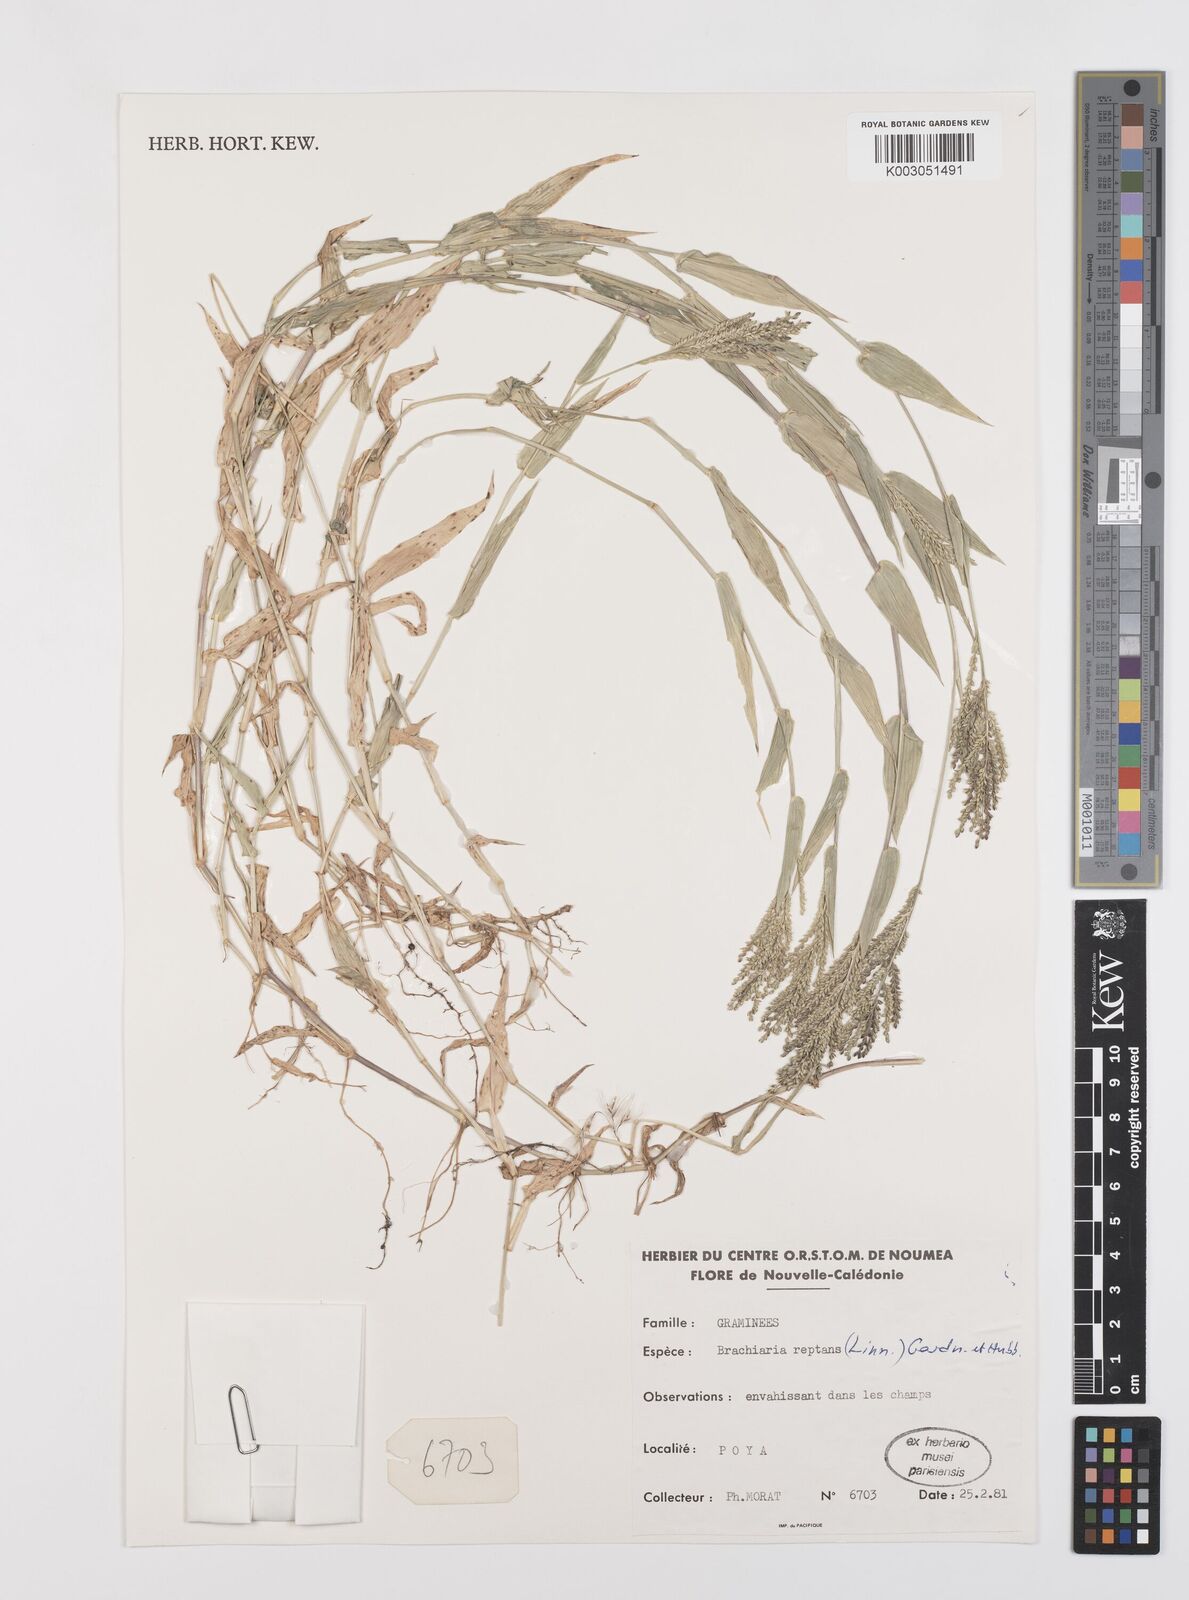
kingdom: Plantae
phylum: Tracheophyta
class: Liliopsida
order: Poales
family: Poaceae
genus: Urochloa
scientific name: Urochloa reptans
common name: Sprawling signalgrass
